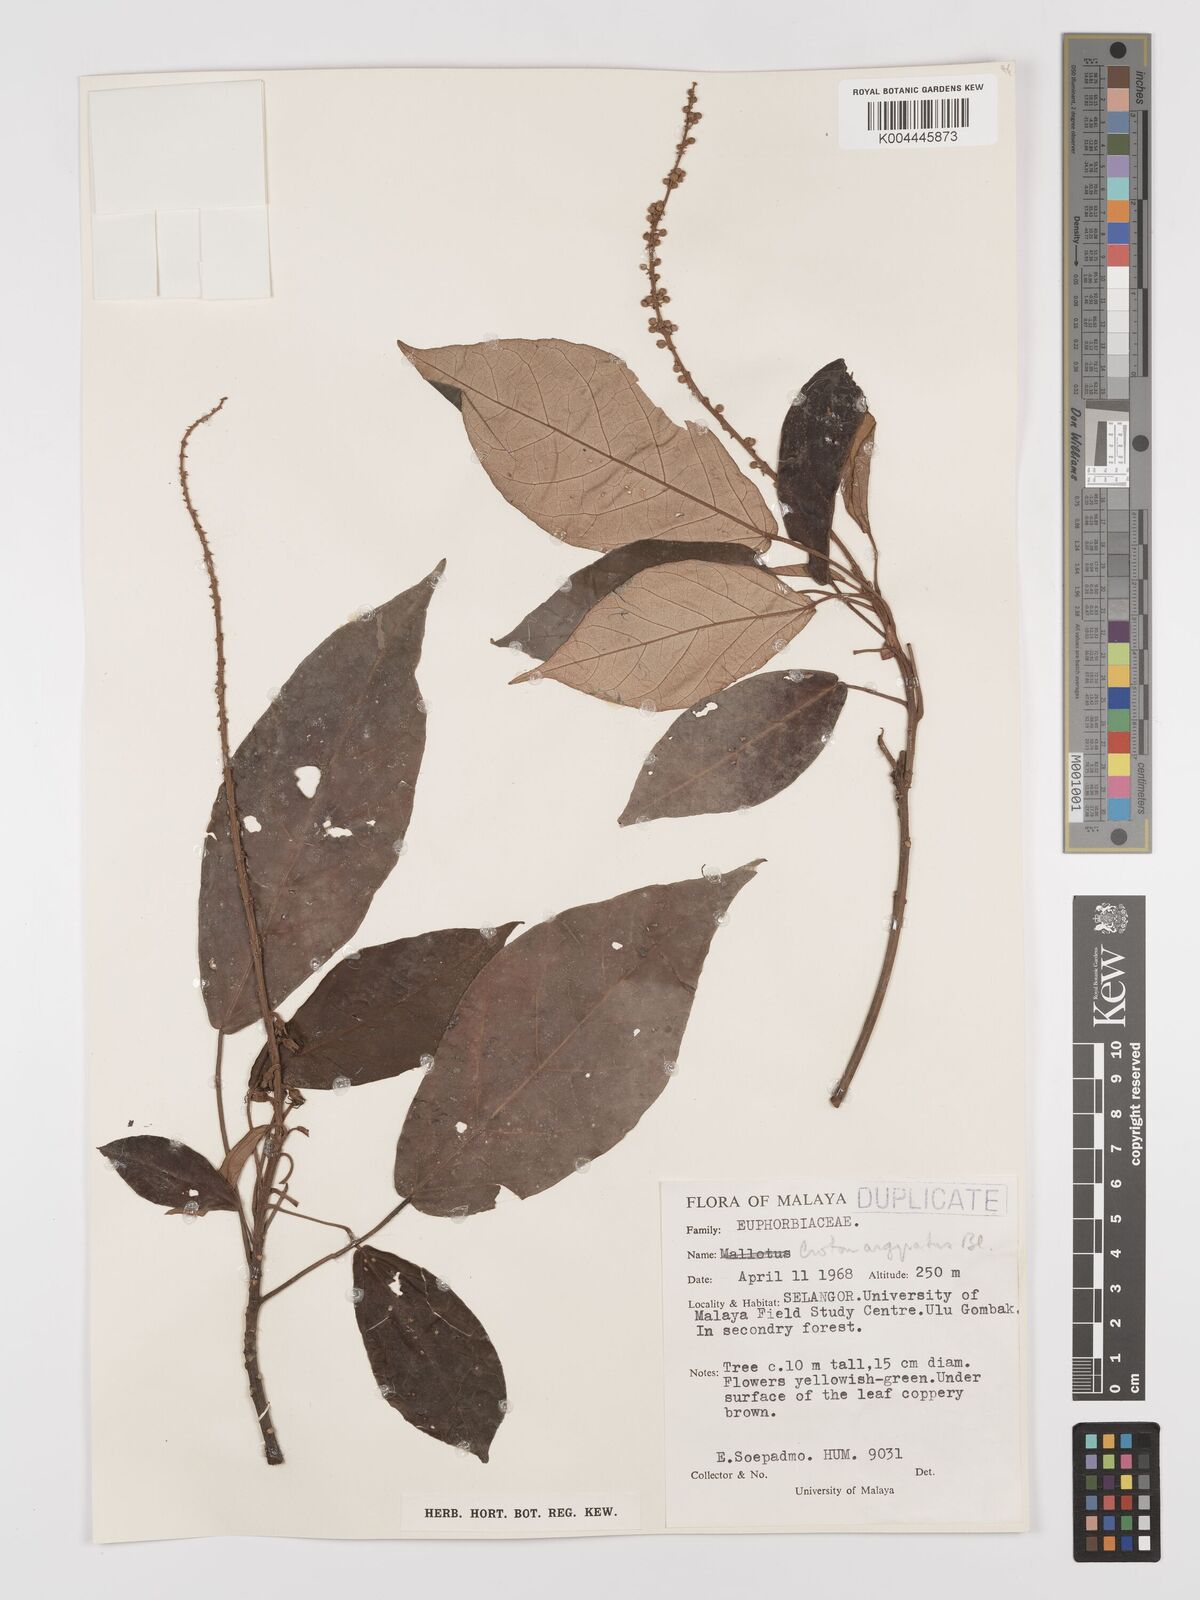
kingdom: Plantae
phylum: Tracheophyta
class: Magnoliopsida
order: Malpighiales
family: Euphorbiaceae
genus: Croton
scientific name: Croton argyratus
